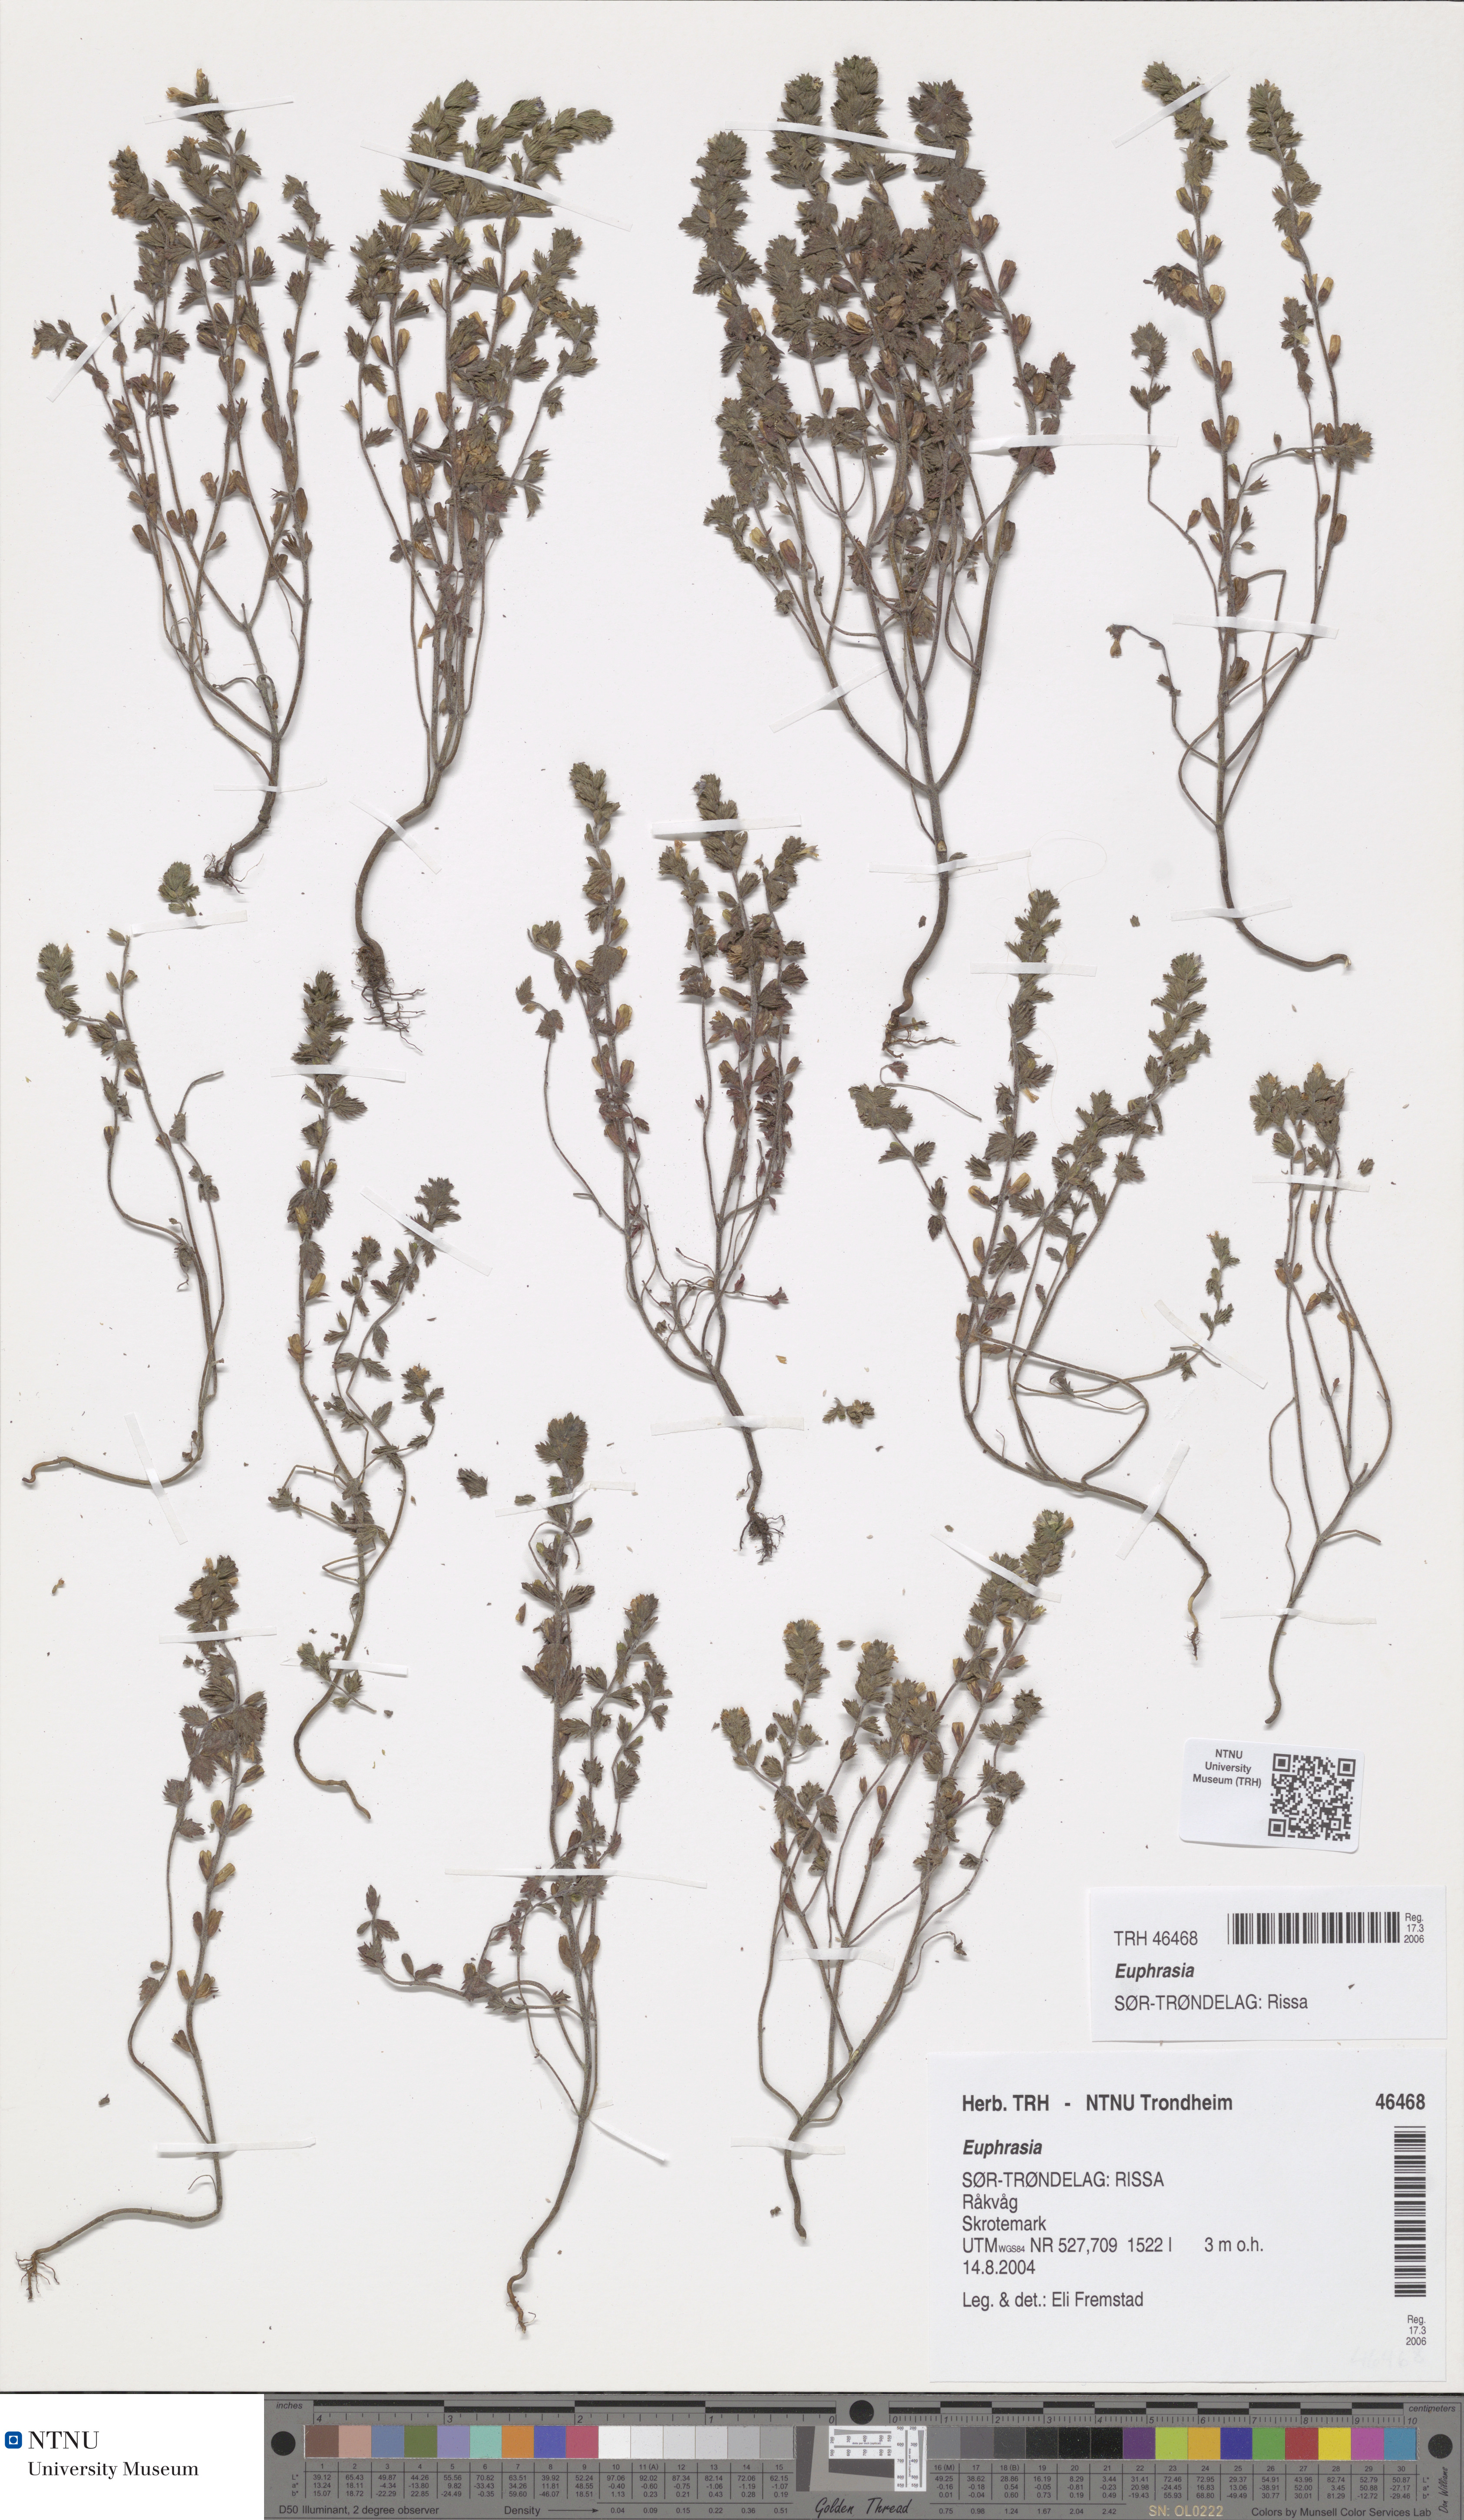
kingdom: Plantae
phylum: Tracheophyta
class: Magnoliopsida
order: Lamiales
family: Orobanchaceae
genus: Euphrasia
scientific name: Euphrasia
